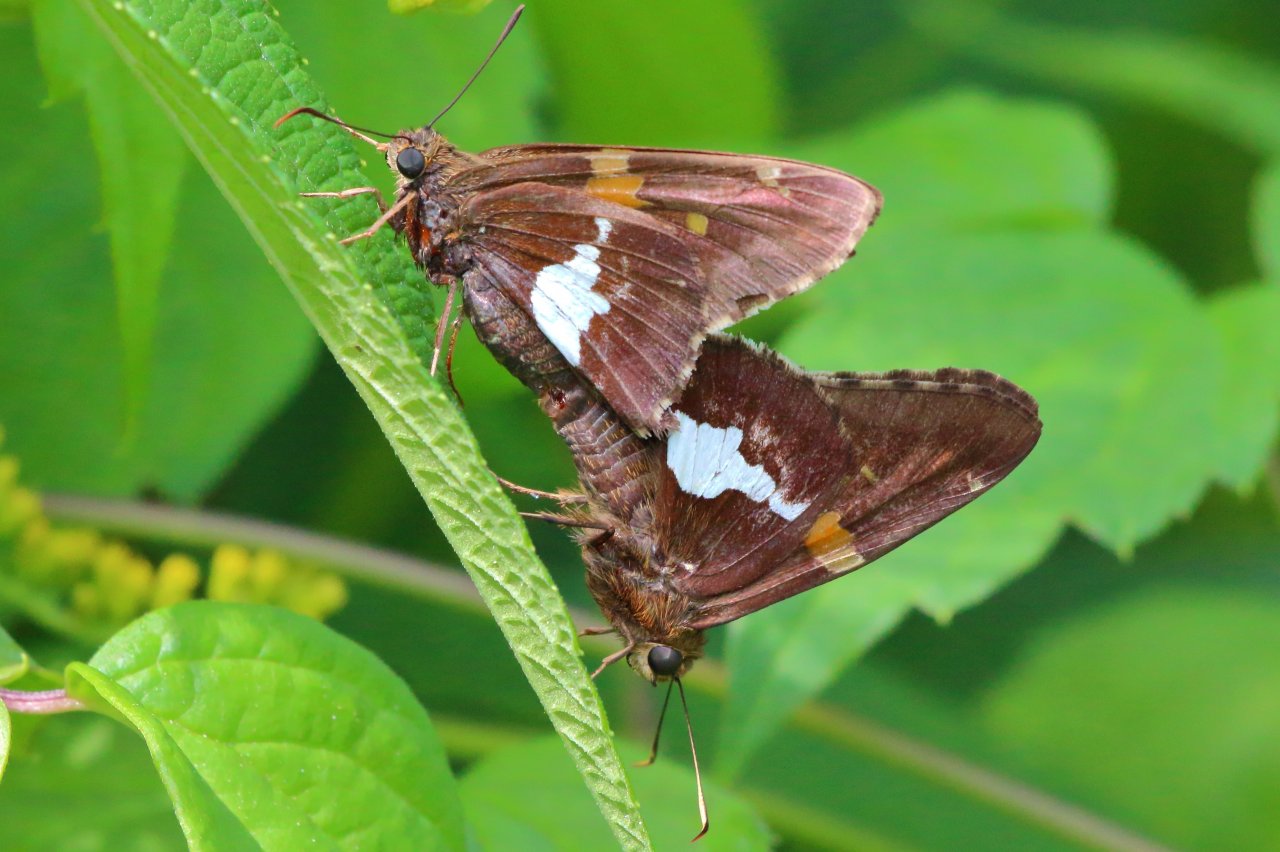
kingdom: Animalia
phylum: Arthropoda
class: Insecta
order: Lepidoptera
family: Hesperiidae
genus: Epargyreus
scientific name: Epargyreus clarus
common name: Silver-spotted Skipper
